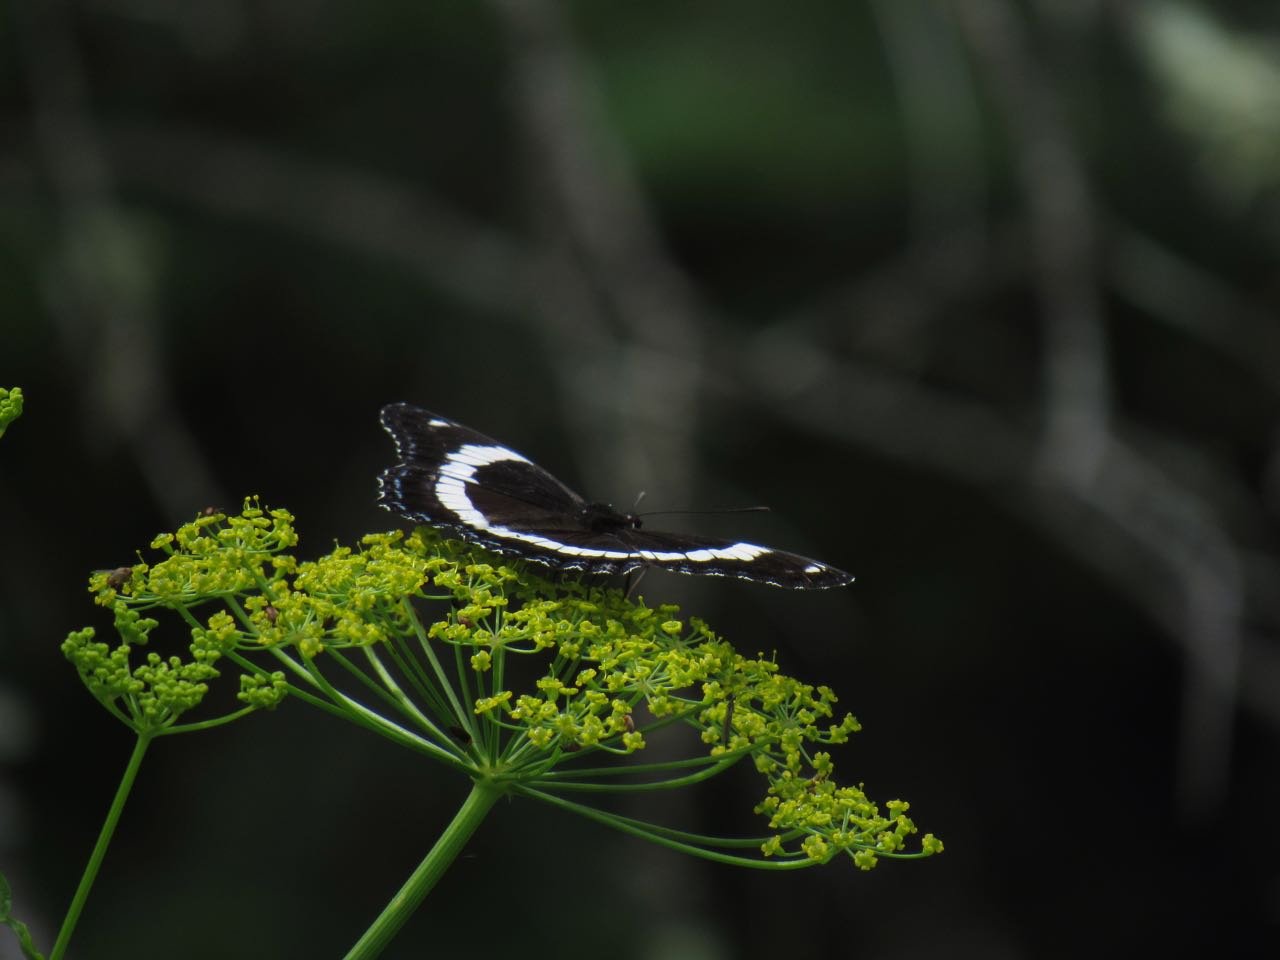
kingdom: Animalia
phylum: Arthropoda
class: Insecta
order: Lepidoptera
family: Nymphalidae
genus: Limenitis
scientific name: Limenitis arthemis
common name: Red-spotted Admiral
